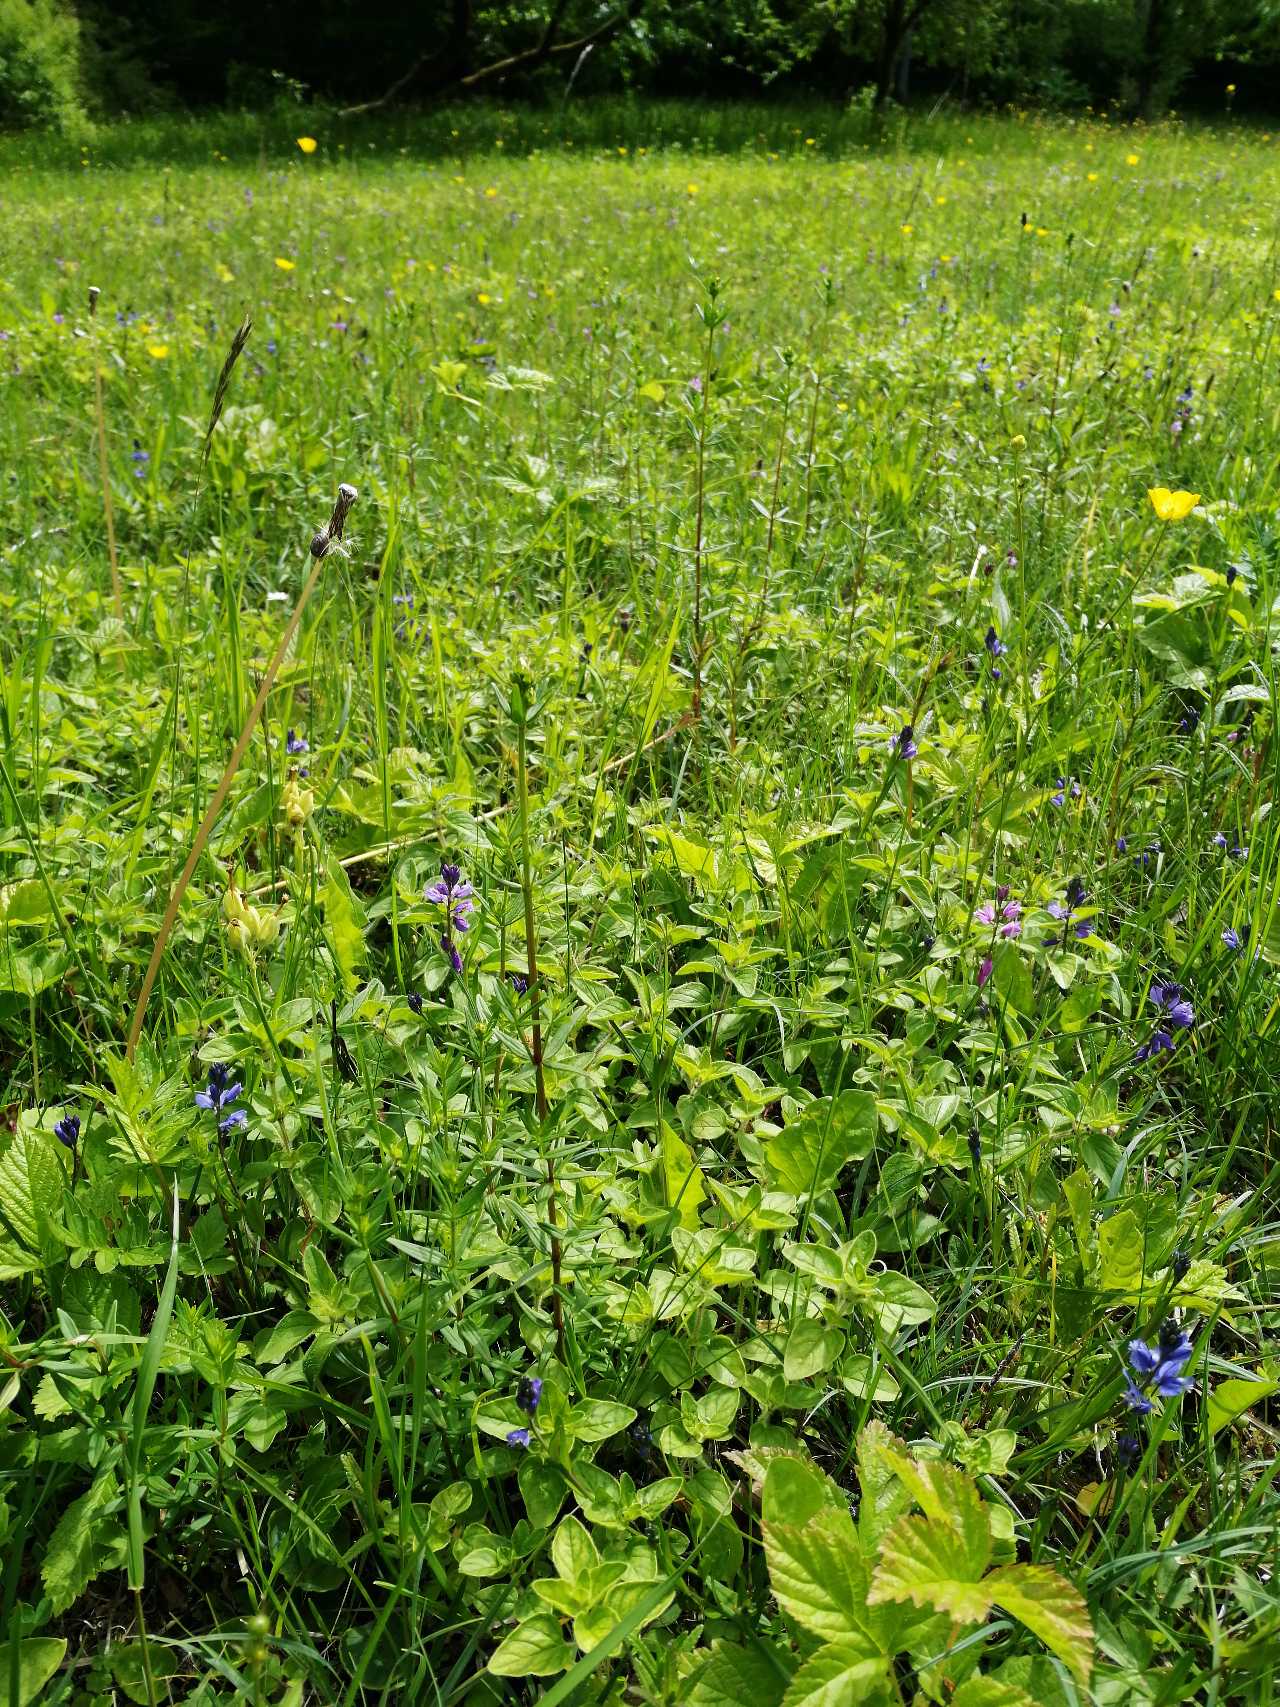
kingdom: Plantae
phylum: Tracheophyta
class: Magnoliopsida
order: Gentianales
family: Rubiaceae
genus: Galium
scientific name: Galium boreale
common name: Trenervet snerre
